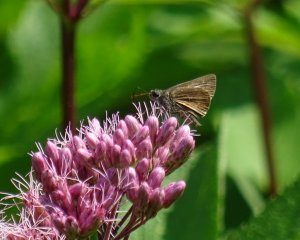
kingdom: Animalia
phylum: Arthropoda
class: Insecta
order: Lepidoptera
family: Hesperiidae
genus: Euphyes
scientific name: Euphyes vestris
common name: Dun Skipper
